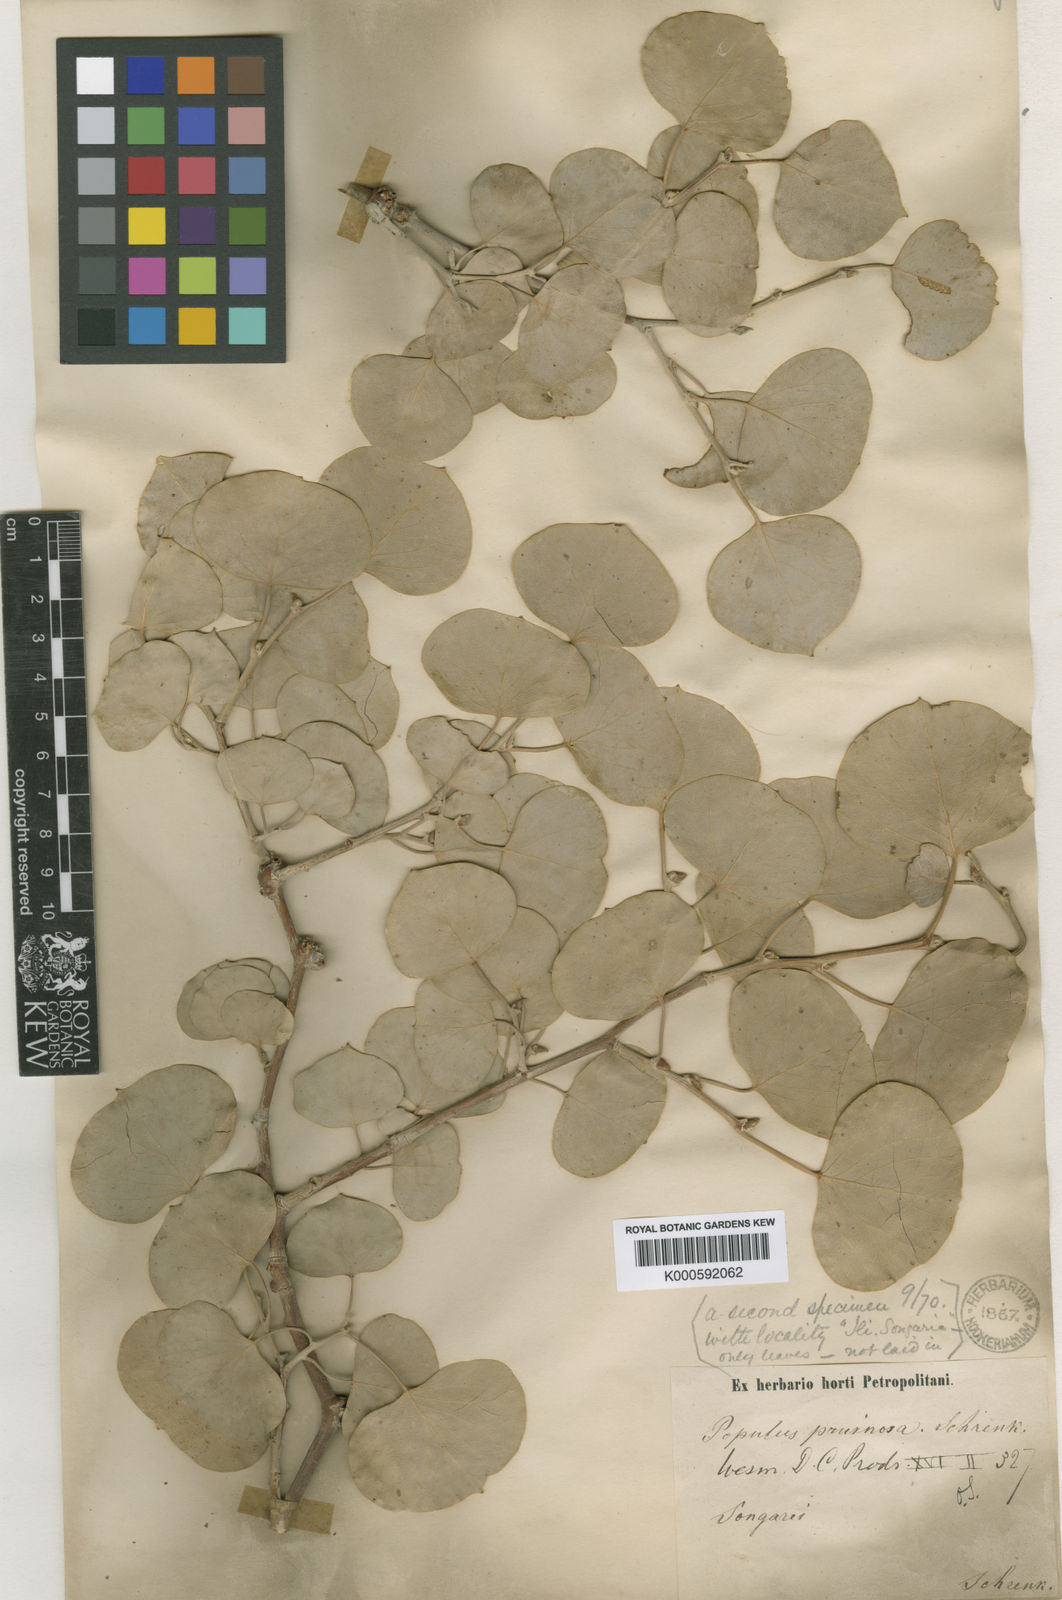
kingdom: Plantae
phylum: Tracheophyta
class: Magnoliopsida
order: Malpighiales
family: Salicaceae
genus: Populus
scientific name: Populus pruinosa
